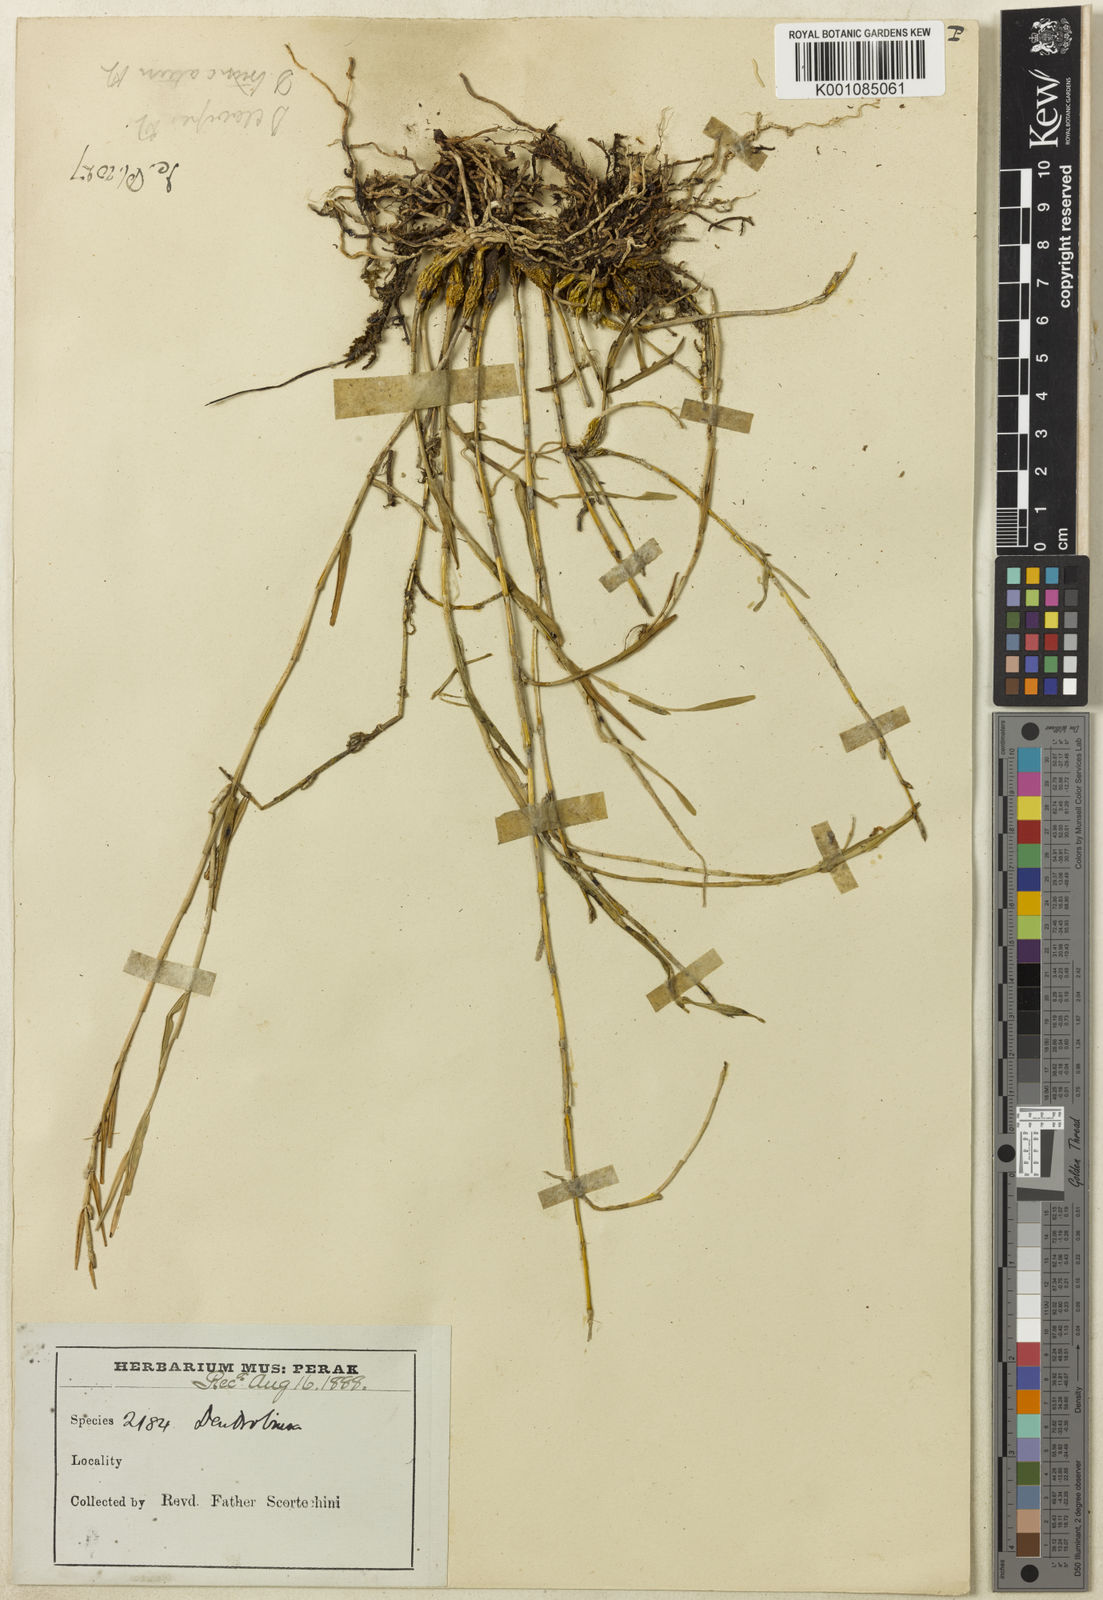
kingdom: Plantae
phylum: Tracheophyta
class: Liliopsida
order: Asparagales
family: Orchidaceae
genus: Dendrobium
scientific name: Dendrobium truncatum
